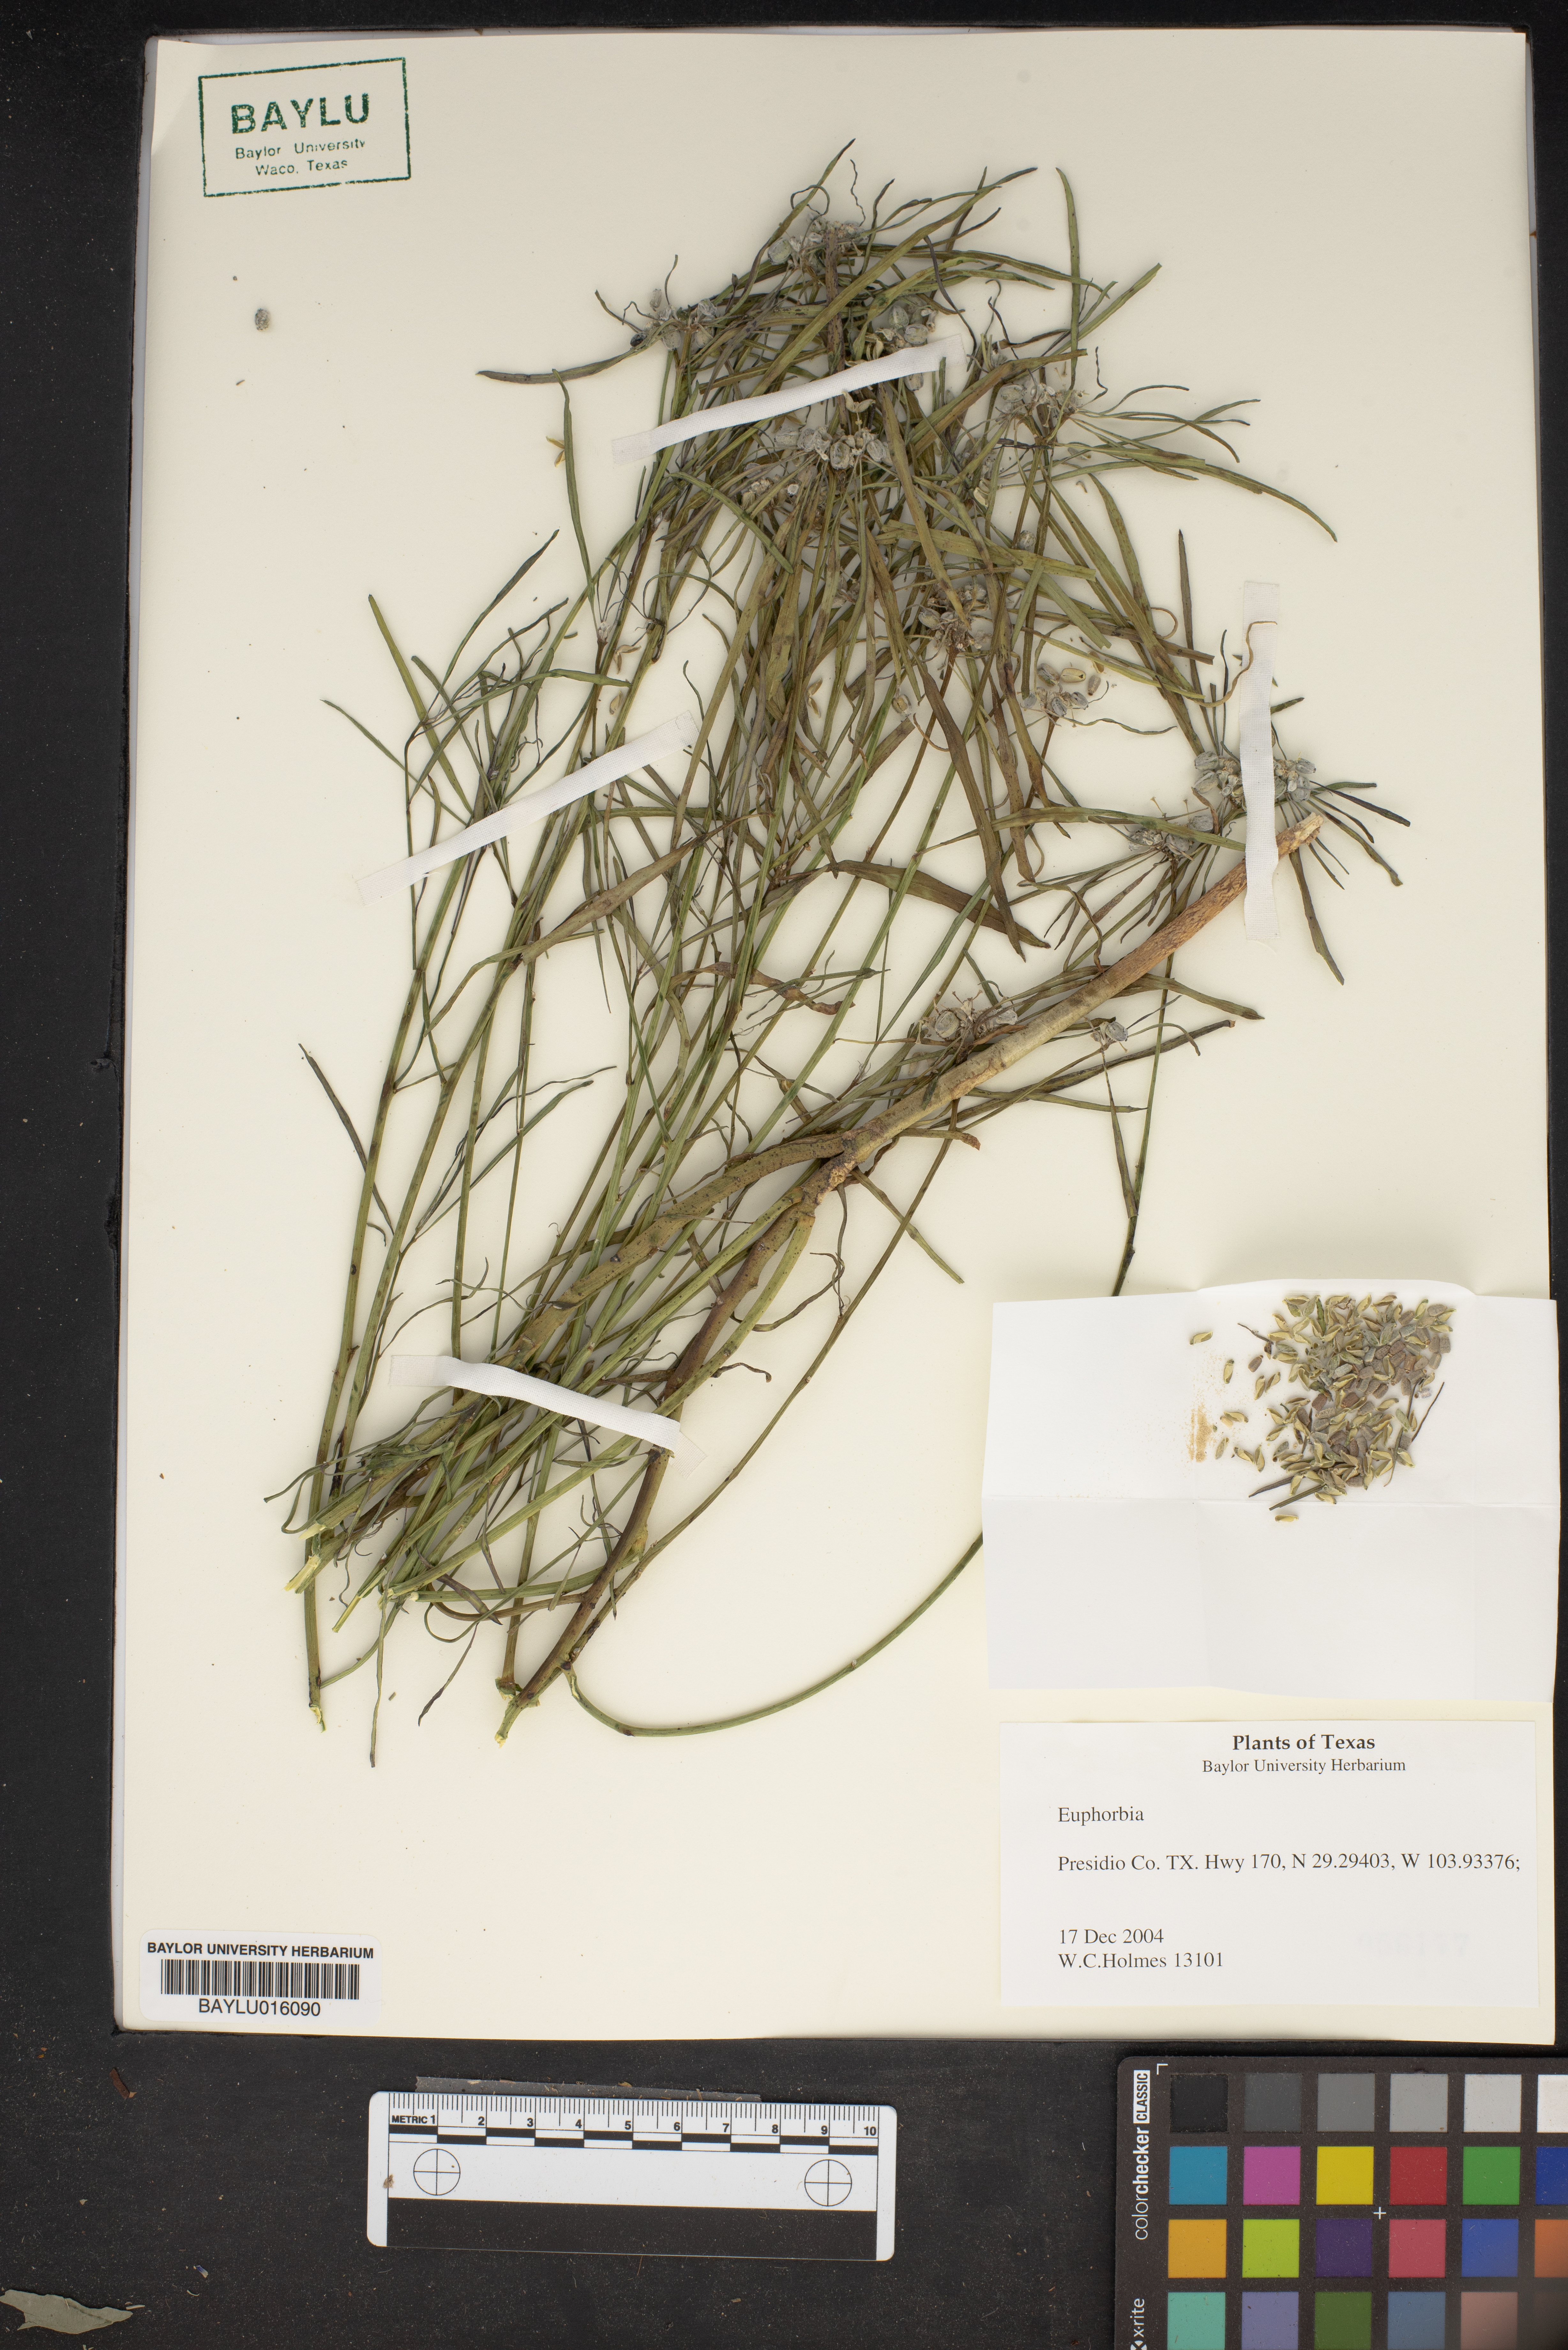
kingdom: Plantae
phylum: Tracheophyta
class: Magnoliopsida
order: Malpighiales
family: Euphorbiaceae
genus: Euphorbia
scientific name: Euphorbia
